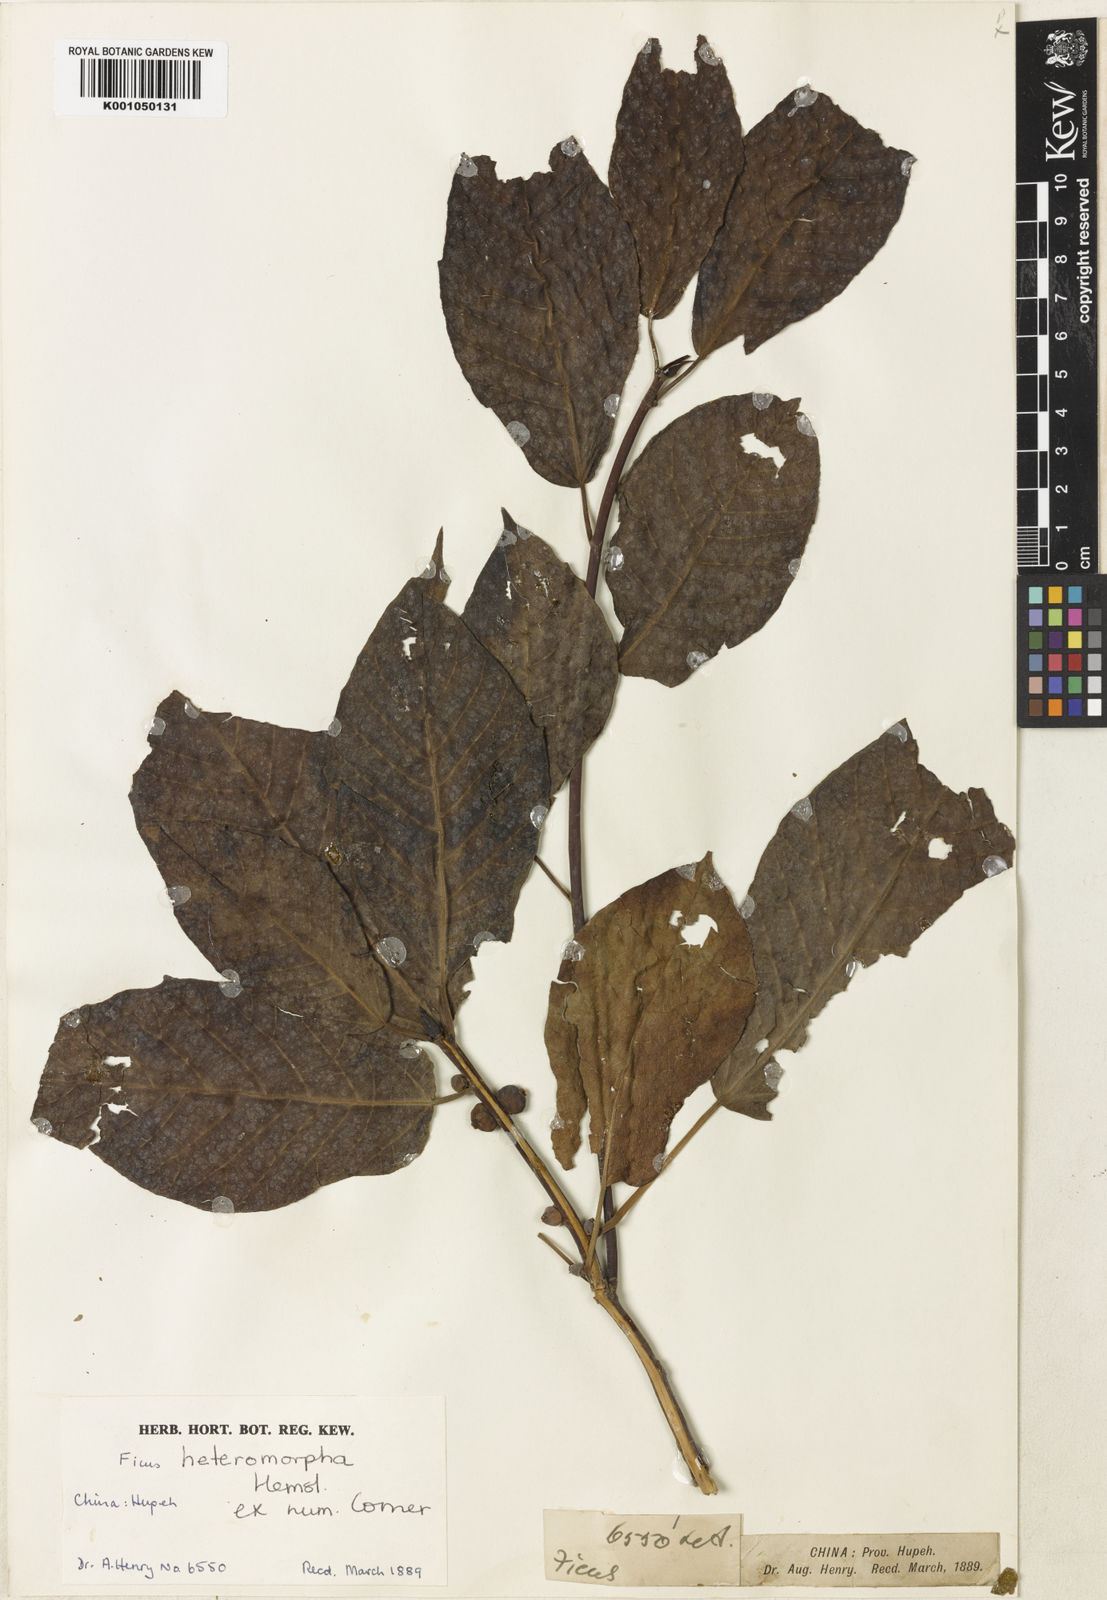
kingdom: Plantae
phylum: Tracheophyta
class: Magnoliopsida
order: Rosales
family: Moraceae
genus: Ficus
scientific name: Ficus heteromorpha
